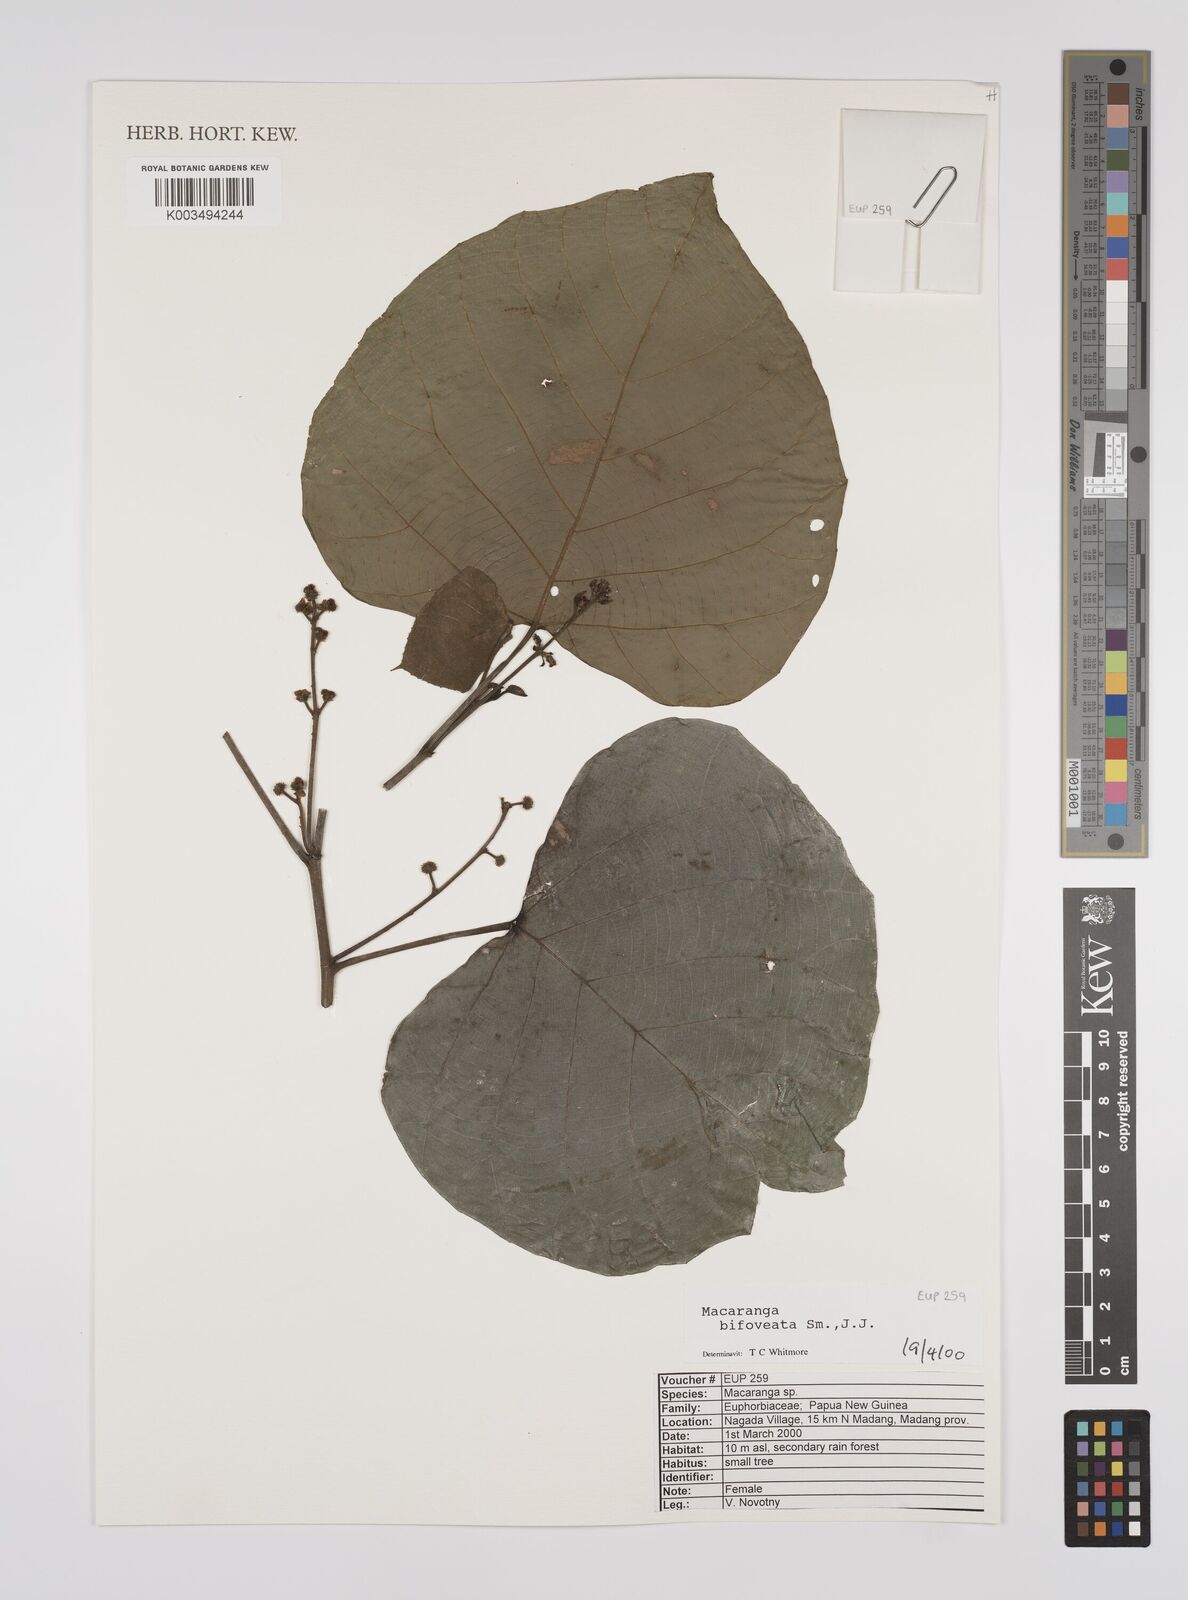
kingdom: Plantae
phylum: Tracheophyta
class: Magnoliopsida
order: Malpighiales
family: Euphorbiaceae
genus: Macaranga
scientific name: Macaranga bifoveata
